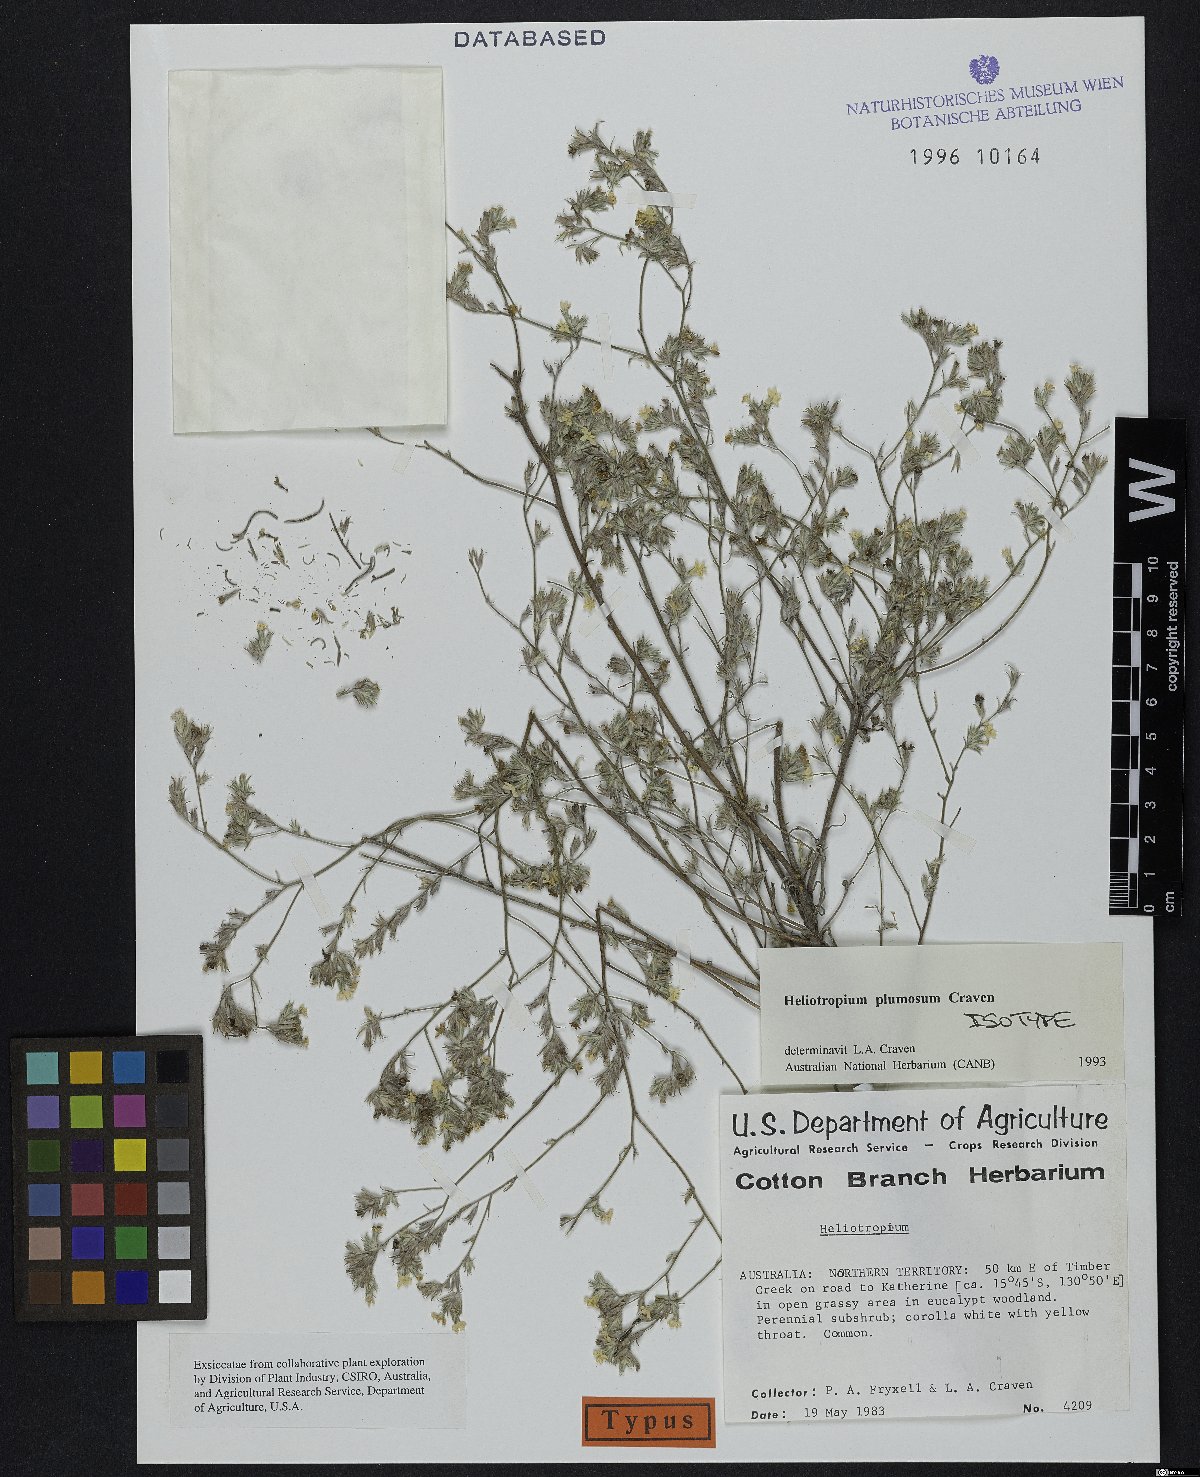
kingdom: Plantae
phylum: Tracheophyta
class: Magnoliopsida
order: Boraginales
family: Heliotropiaceae
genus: Euploca
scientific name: Euploca plumosa
